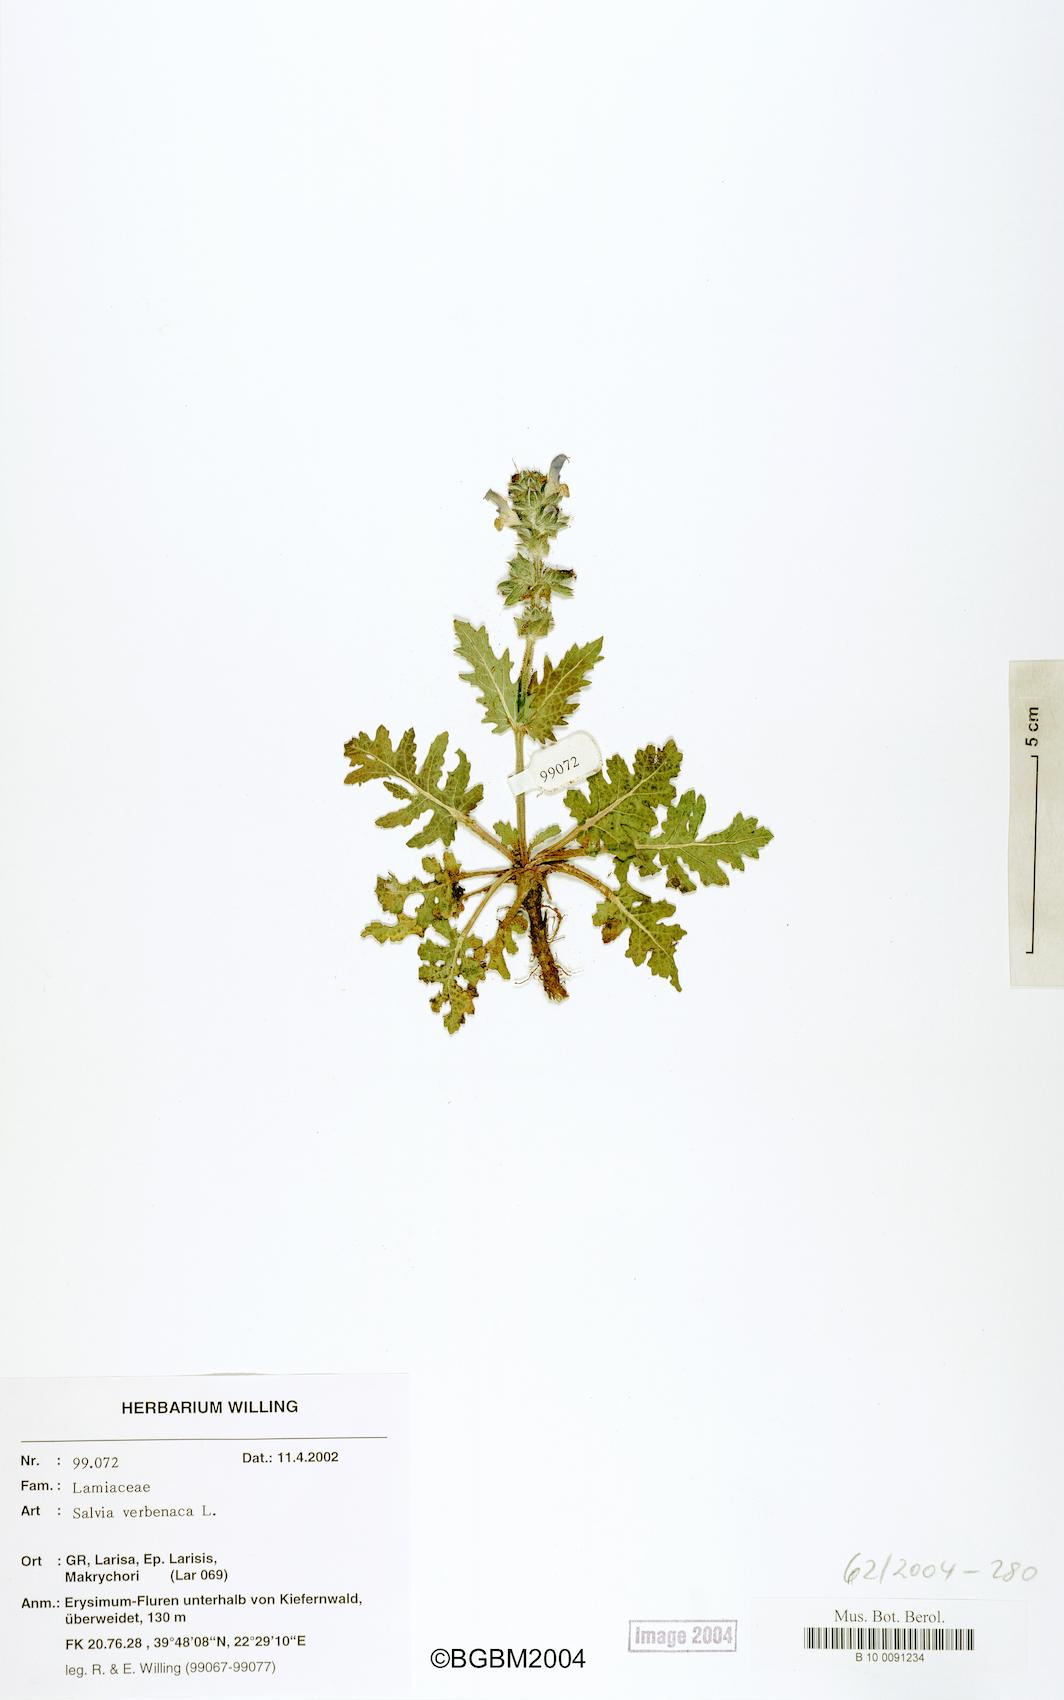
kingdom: Plantae
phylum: Tracheophyta
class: Magnoliopsida
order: Lamiales
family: Lamiaceae
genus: Salvia
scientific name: Salvia verbenaca
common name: Wild clary
